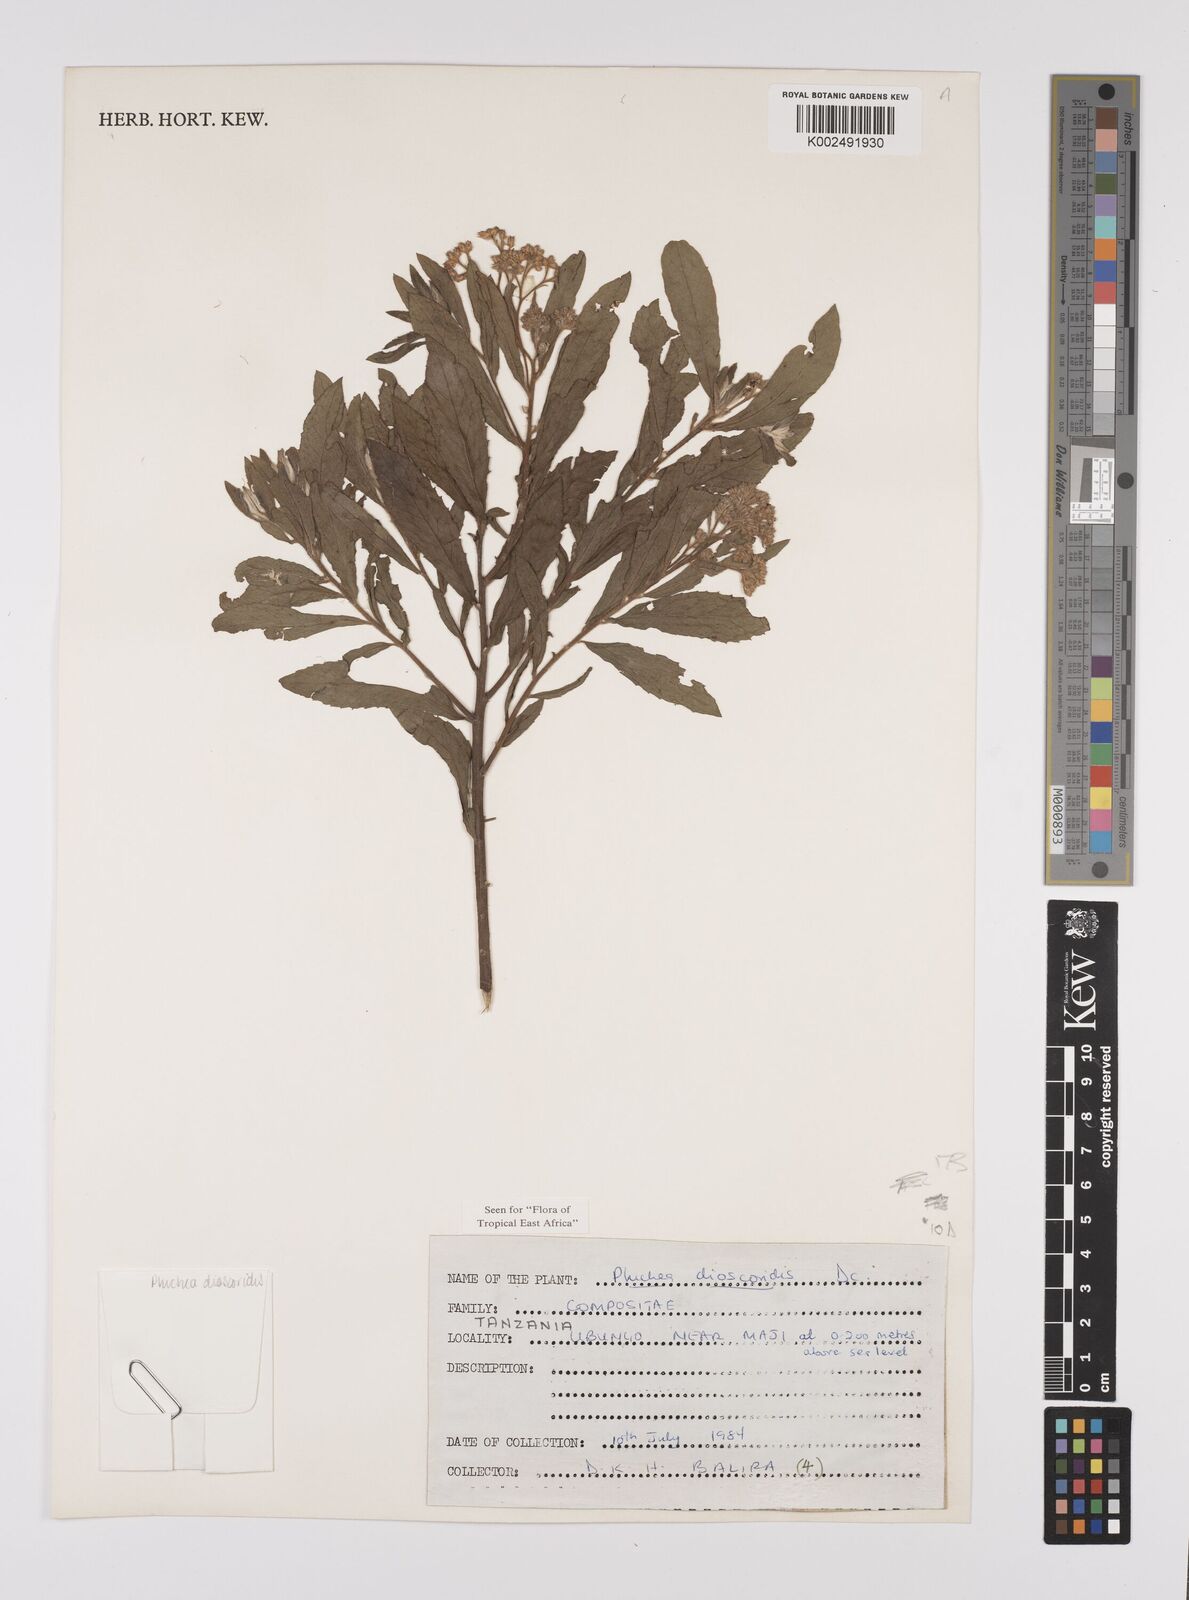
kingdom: Plantae
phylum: Tracheophyta
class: Magnoliopsida
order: Asterales
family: Asteraceae
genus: Pluchea
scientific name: Pluchea dioscoridis
